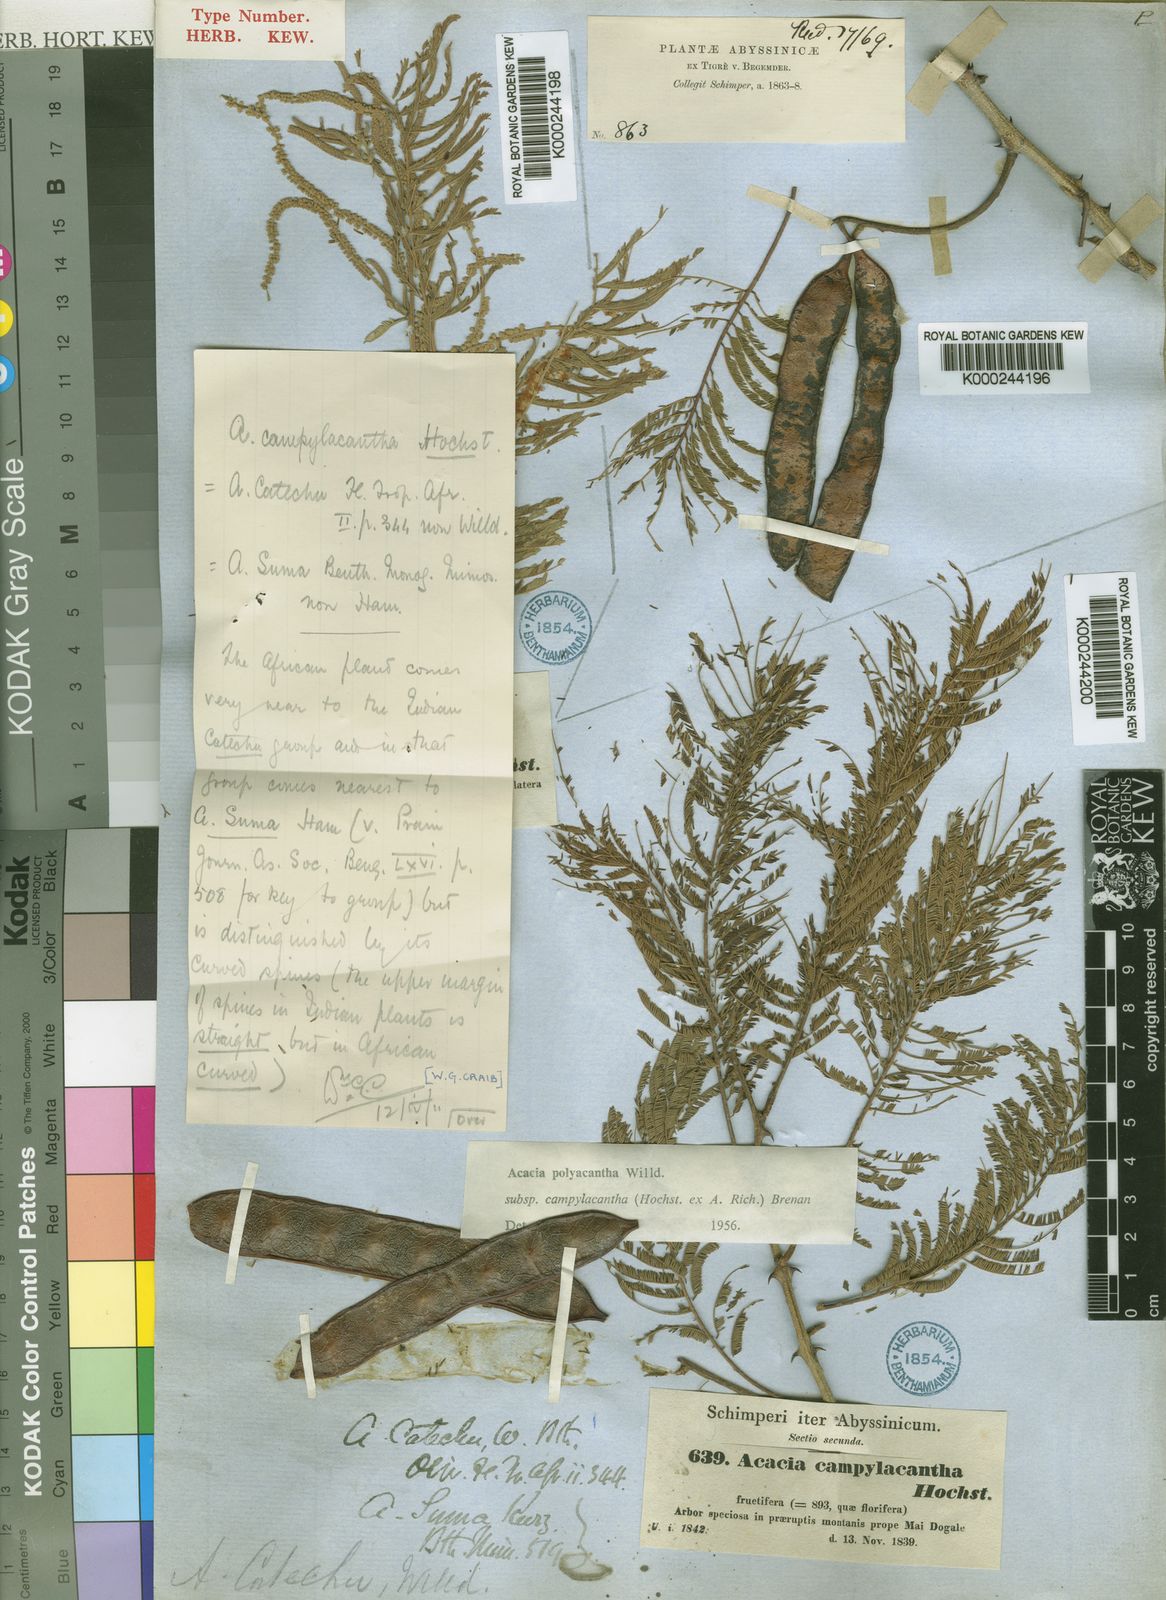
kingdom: Plantae
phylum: Tracheophyta
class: Magnoliopsida
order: Fabales
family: Fabaceae
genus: Senegalia
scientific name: Senegalia polyacantha
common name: Whitethorn
